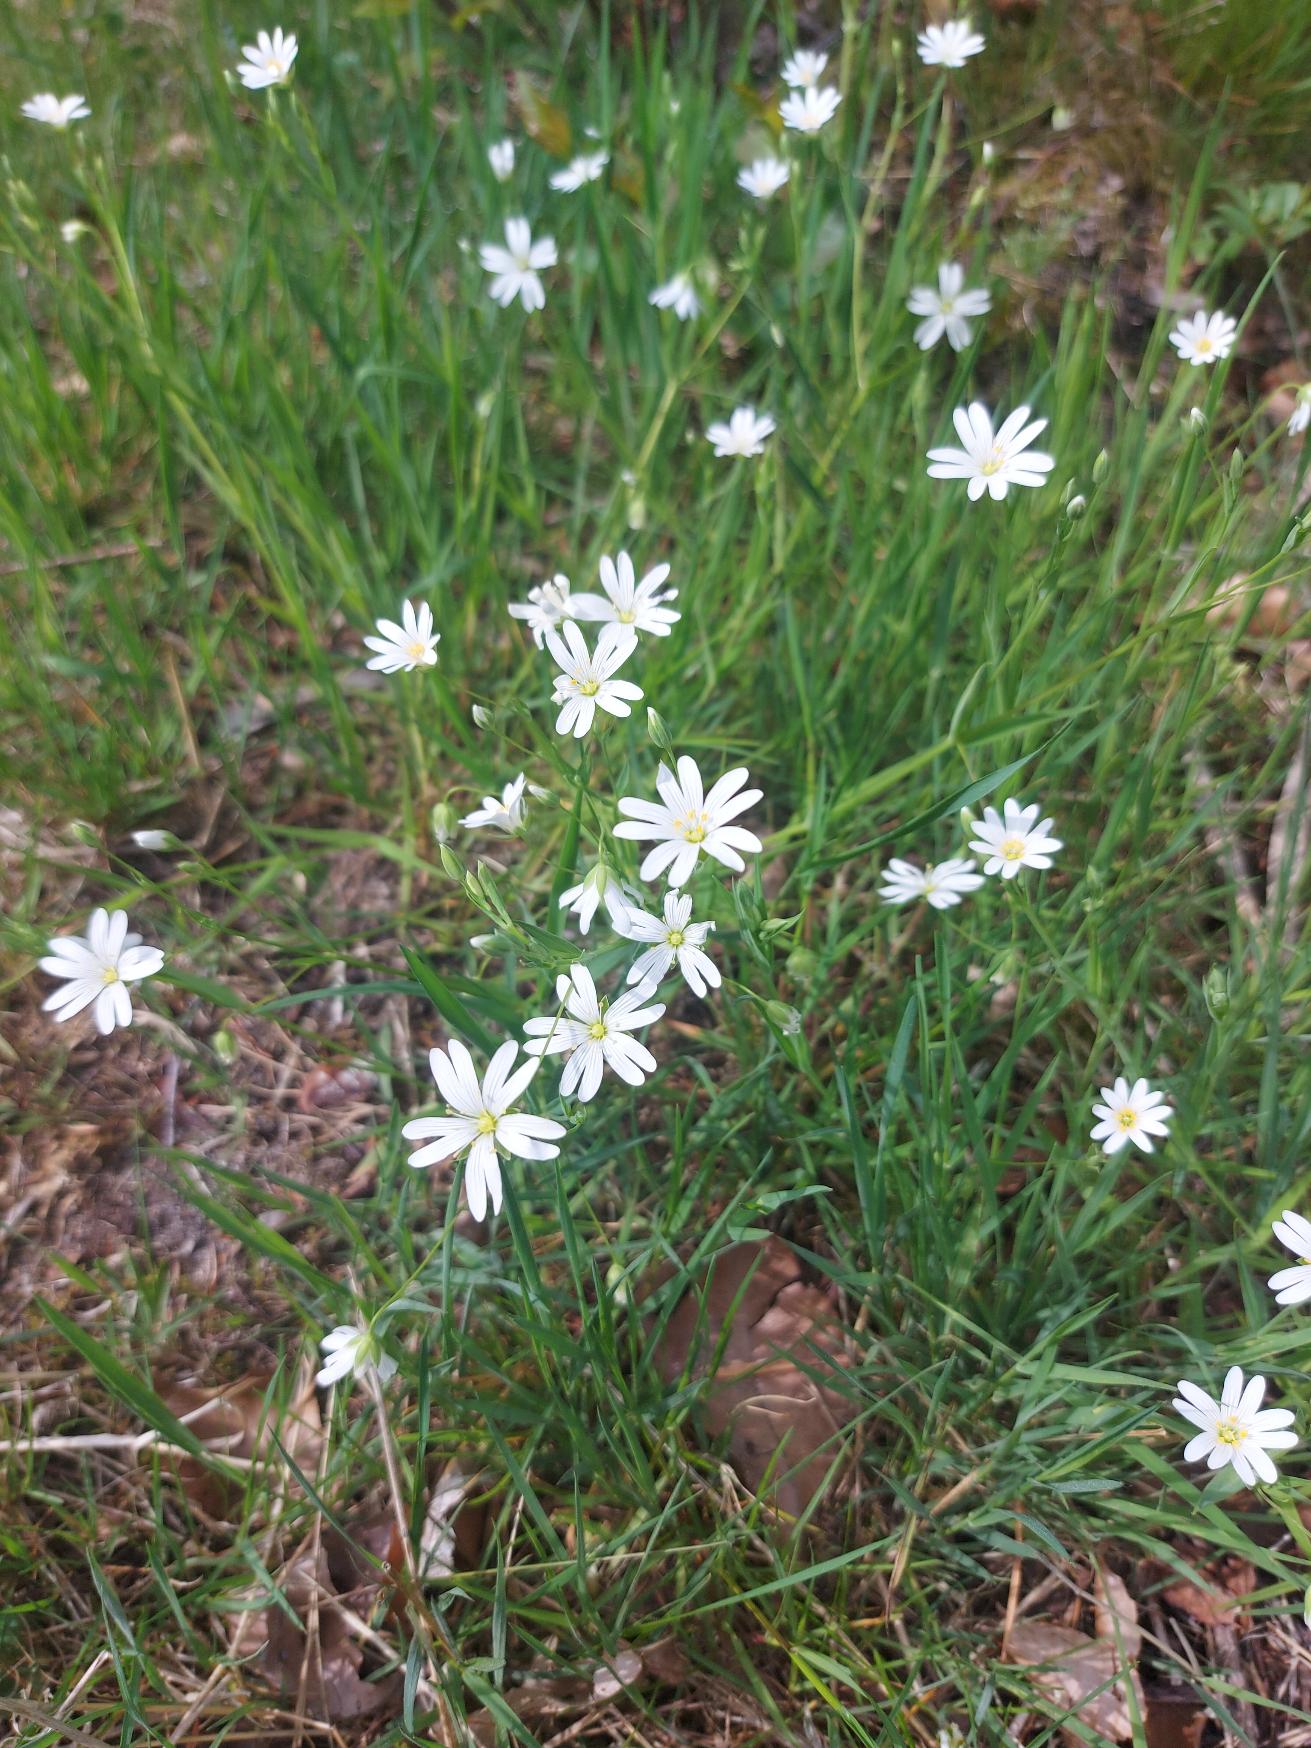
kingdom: Plantae
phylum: Tracheophyta
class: Magnoliopsida
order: Caryophyllales
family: Caryophyllaceae
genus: Rabelera
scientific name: Rabelera holostea
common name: Stor fladstjerne
